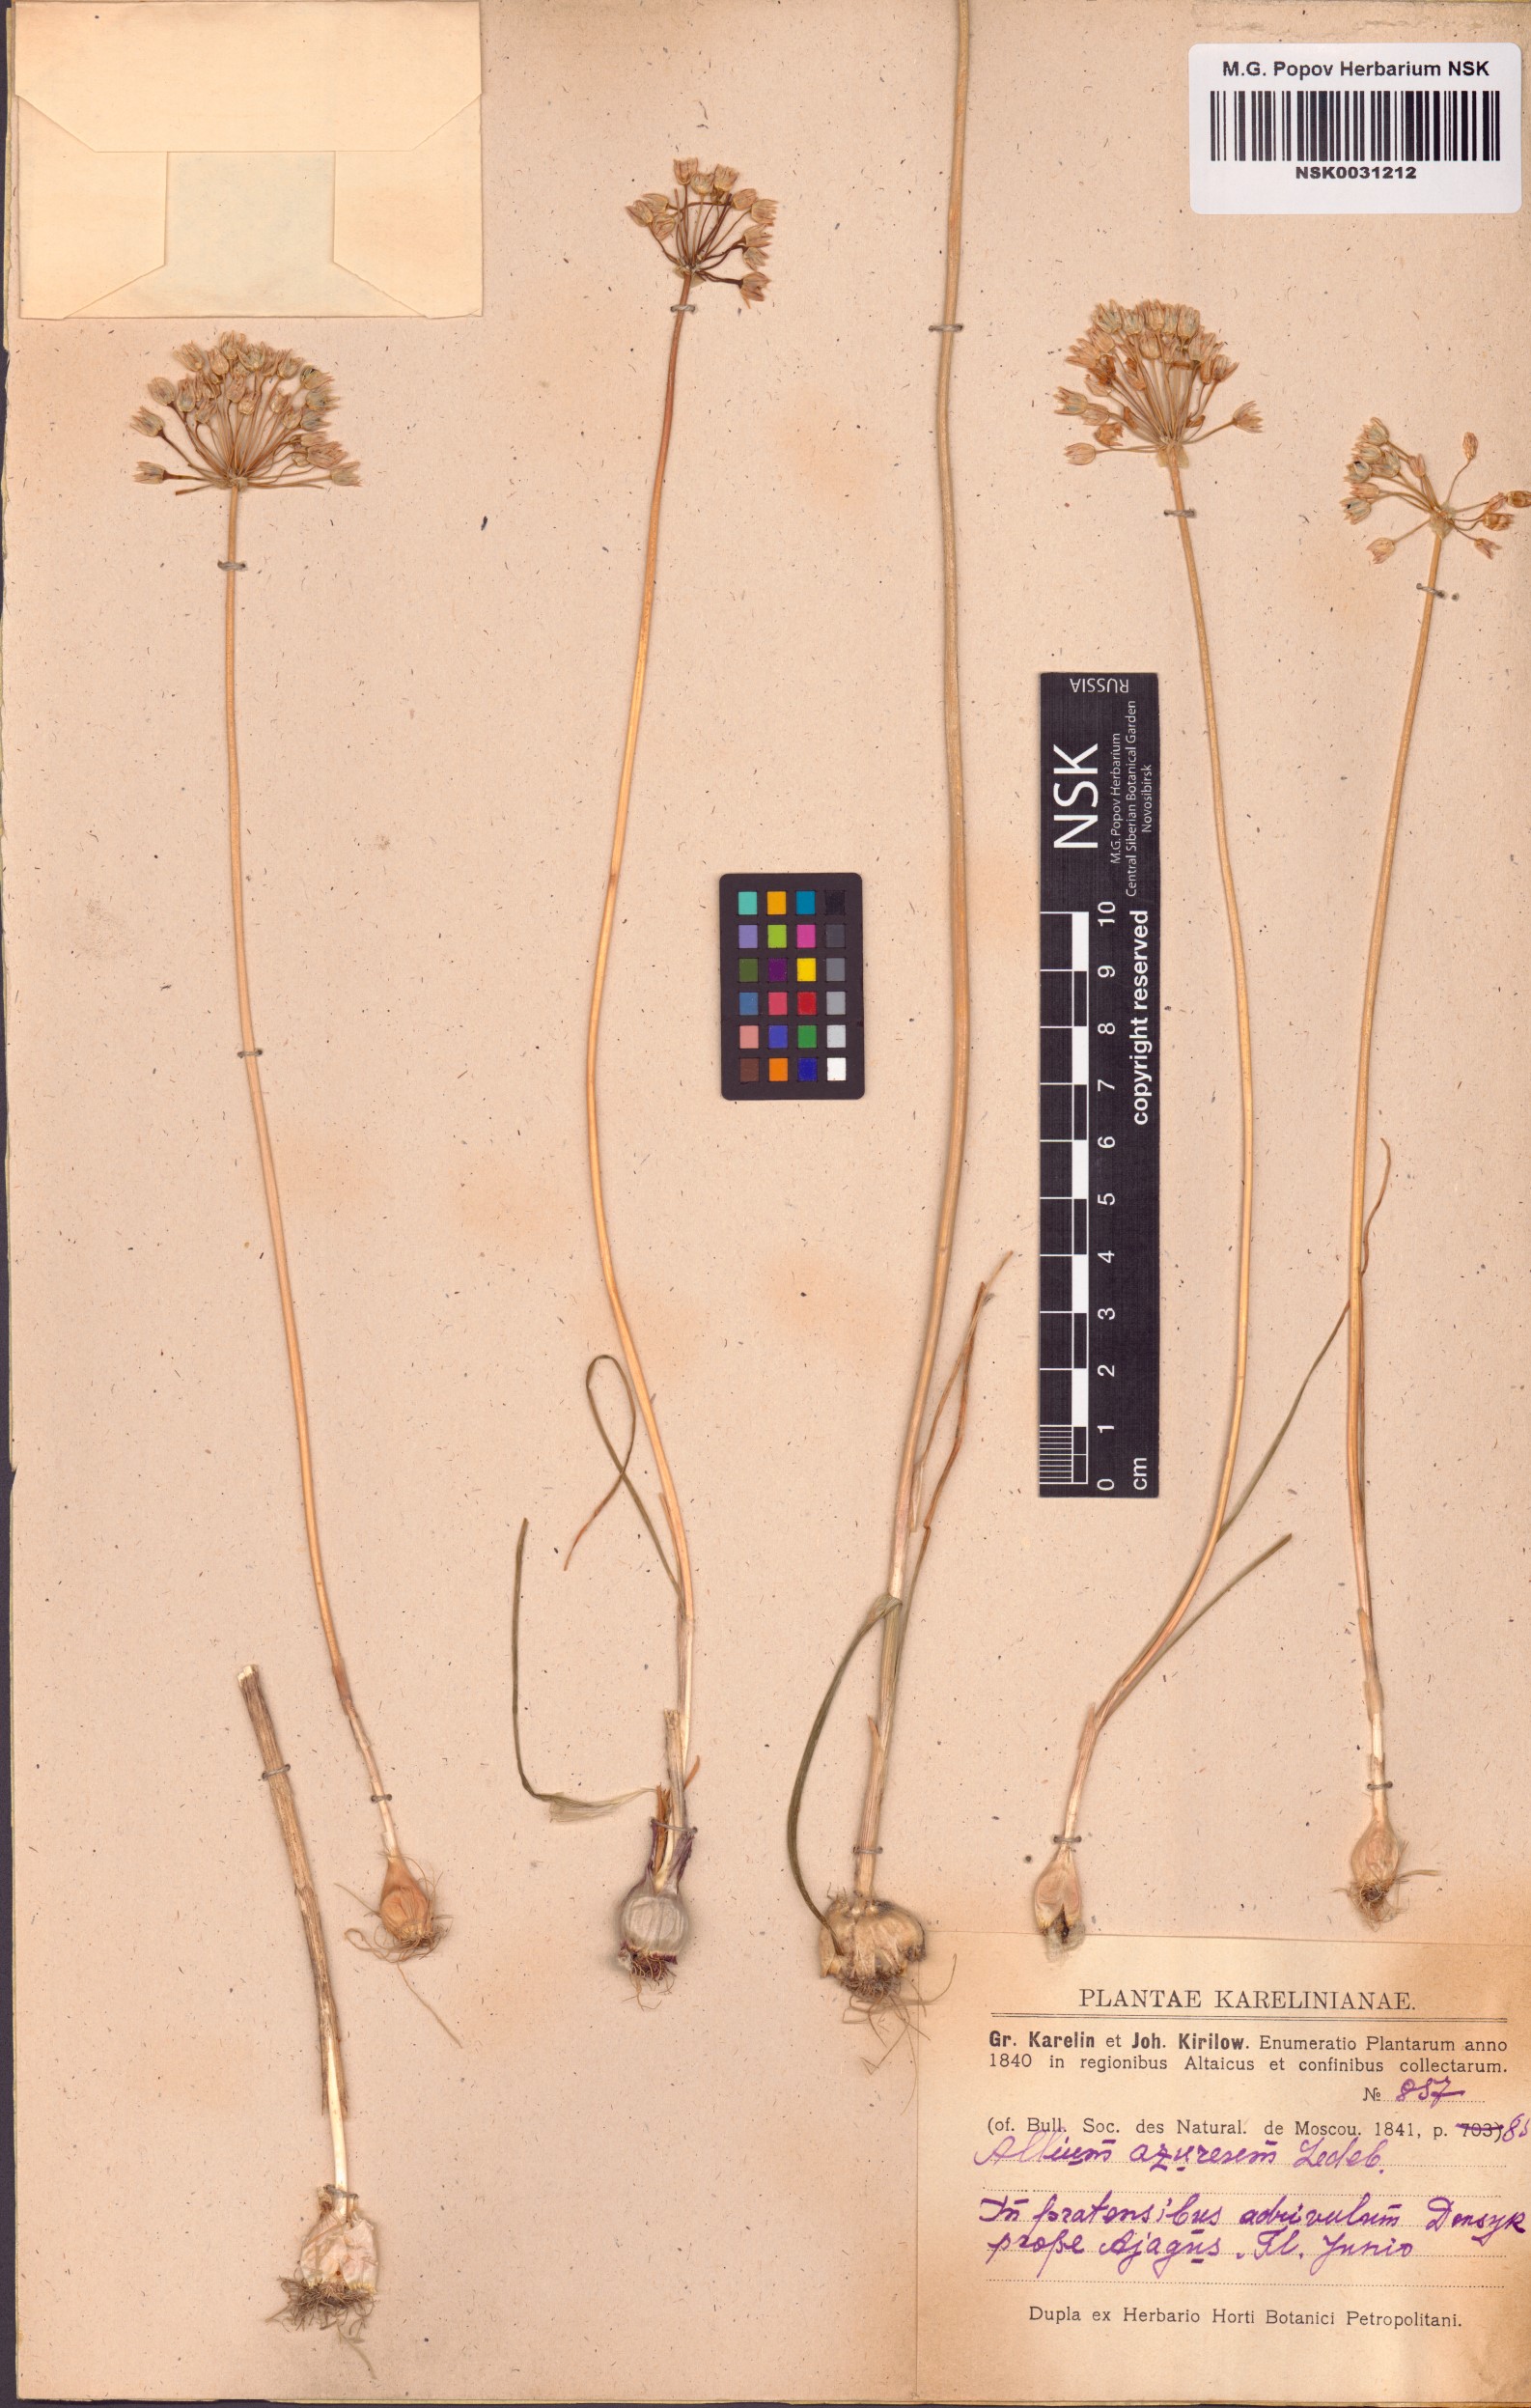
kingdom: Plantae
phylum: Tracheophyta
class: Liliopsida
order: Asparagales
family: Amaryllidaceae
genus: Allium
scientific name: Allium caeruleum
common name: Blue-of-the-heavens
